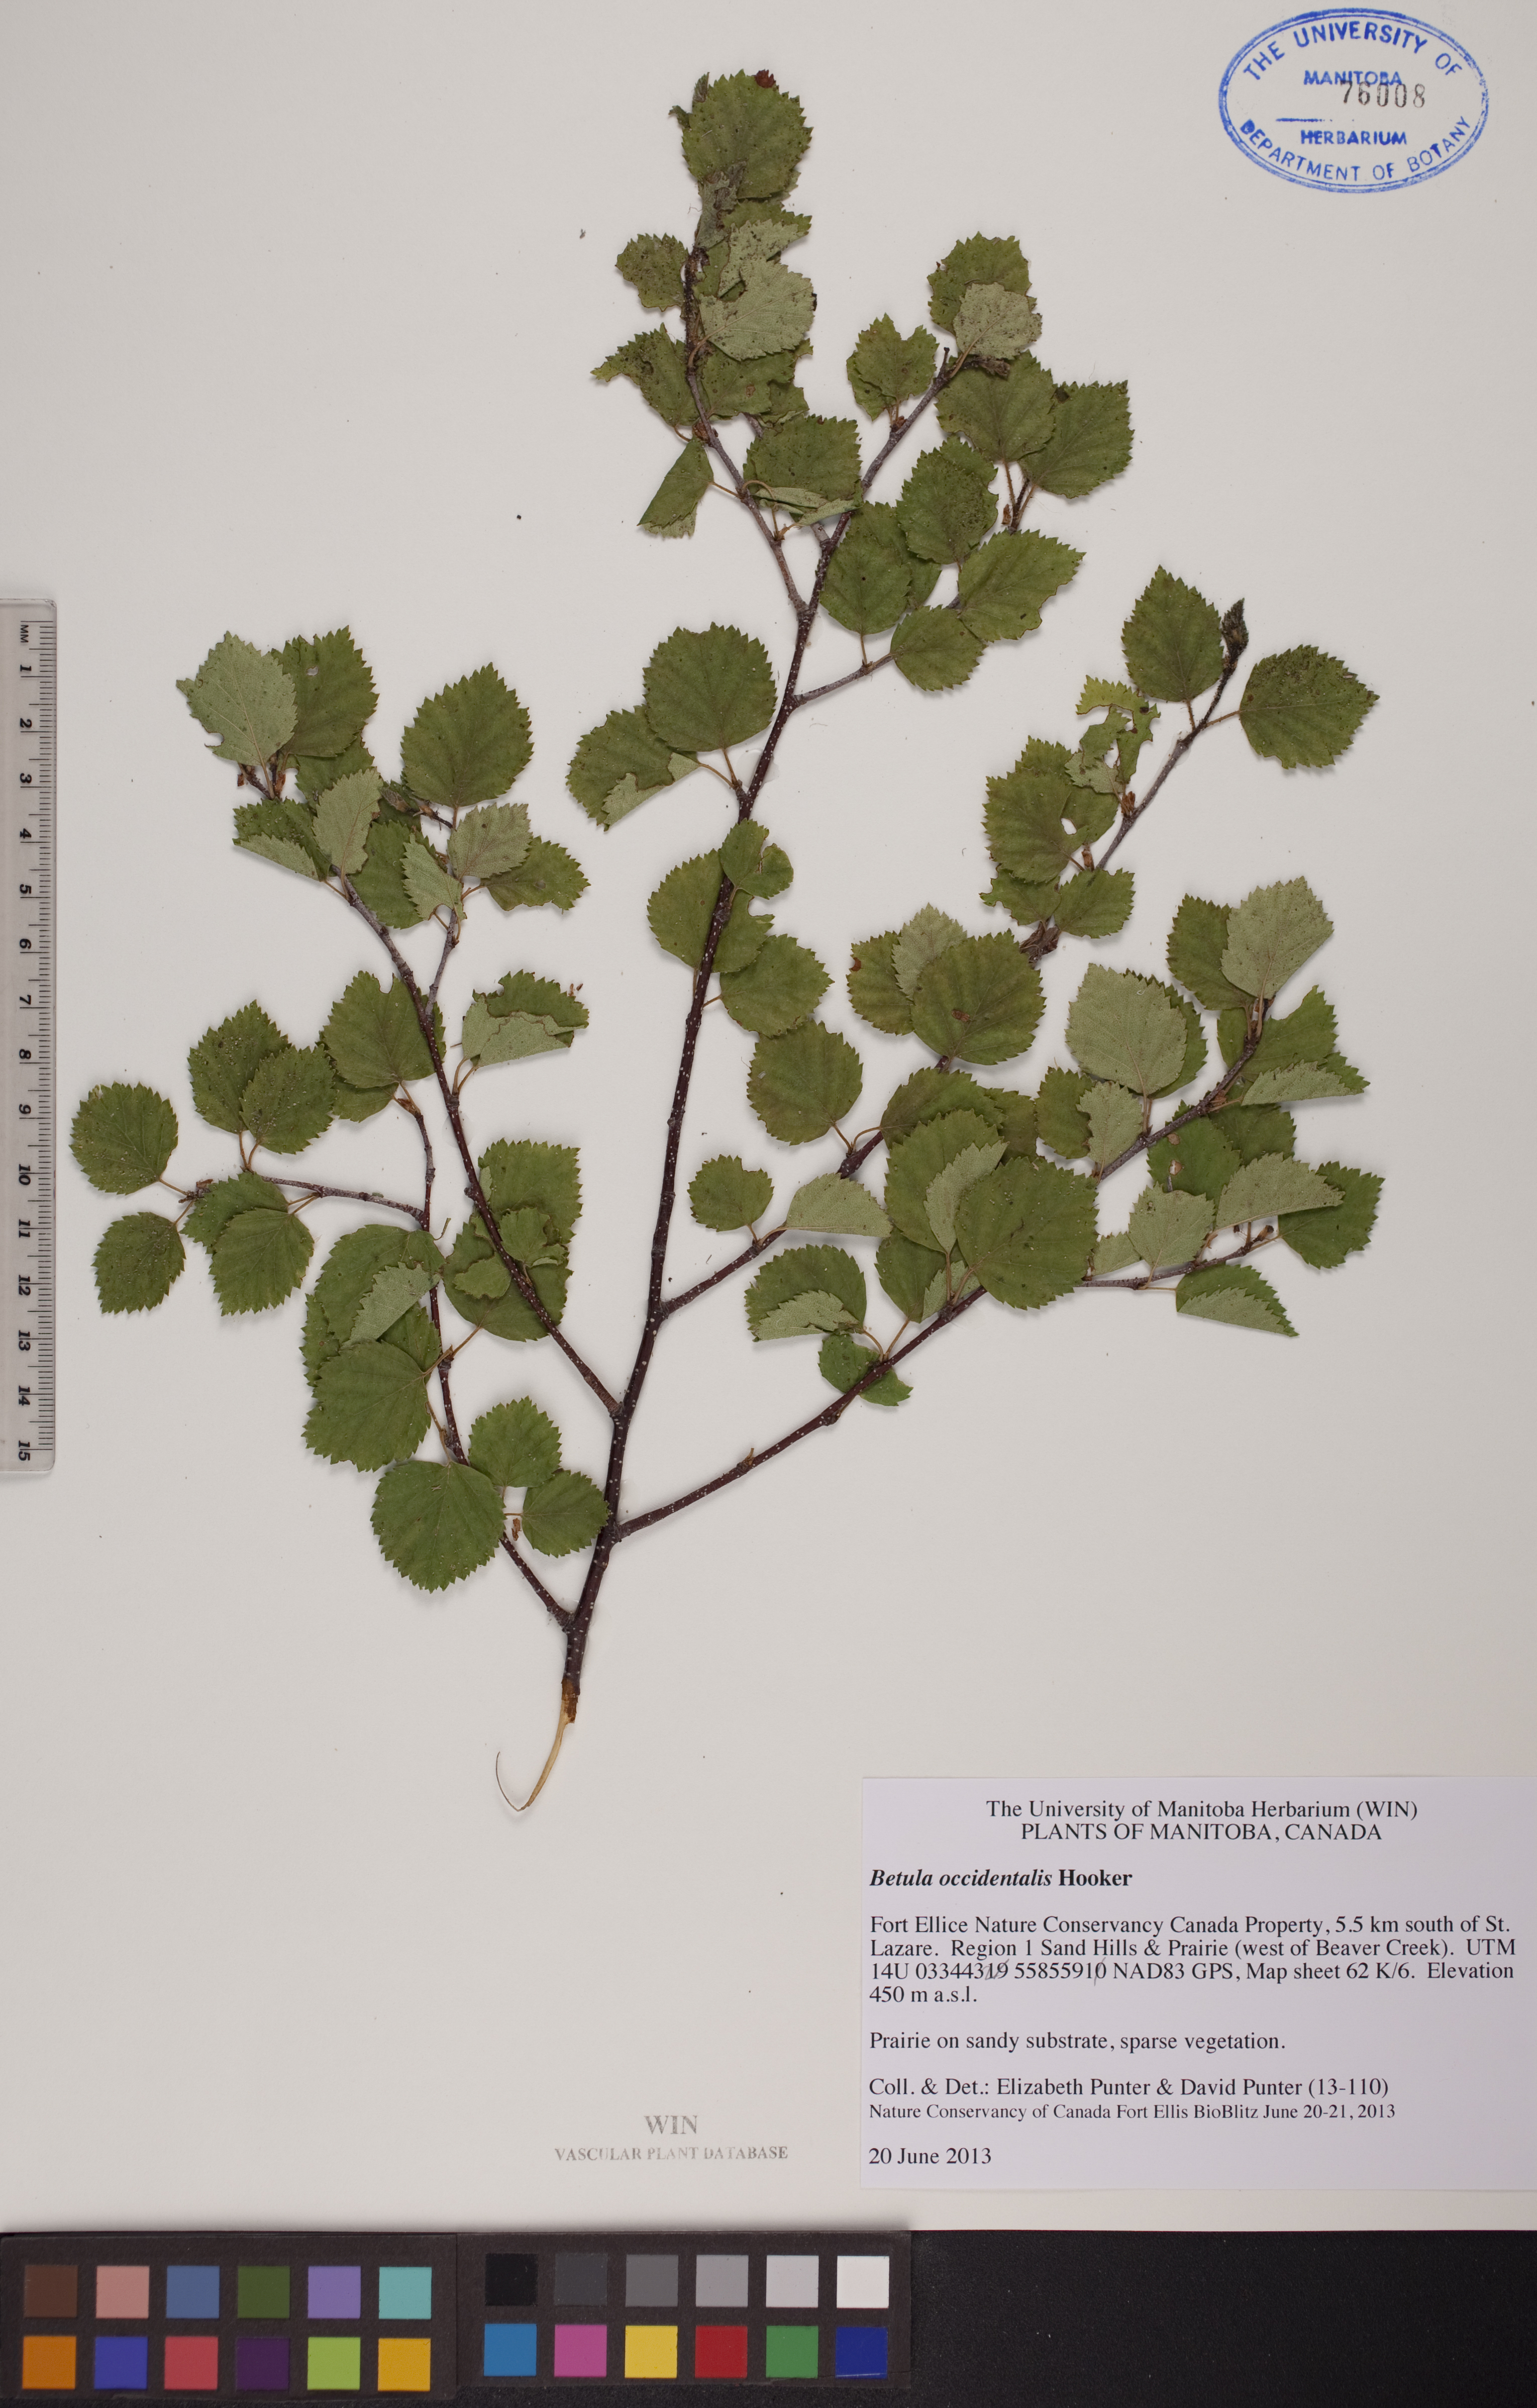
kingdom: Plantae
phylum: Tracheophyta
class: Magnoliopsida
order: Fagales
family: Betulaceae
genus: Betula
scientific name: Betula occidentalis
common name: River birch
